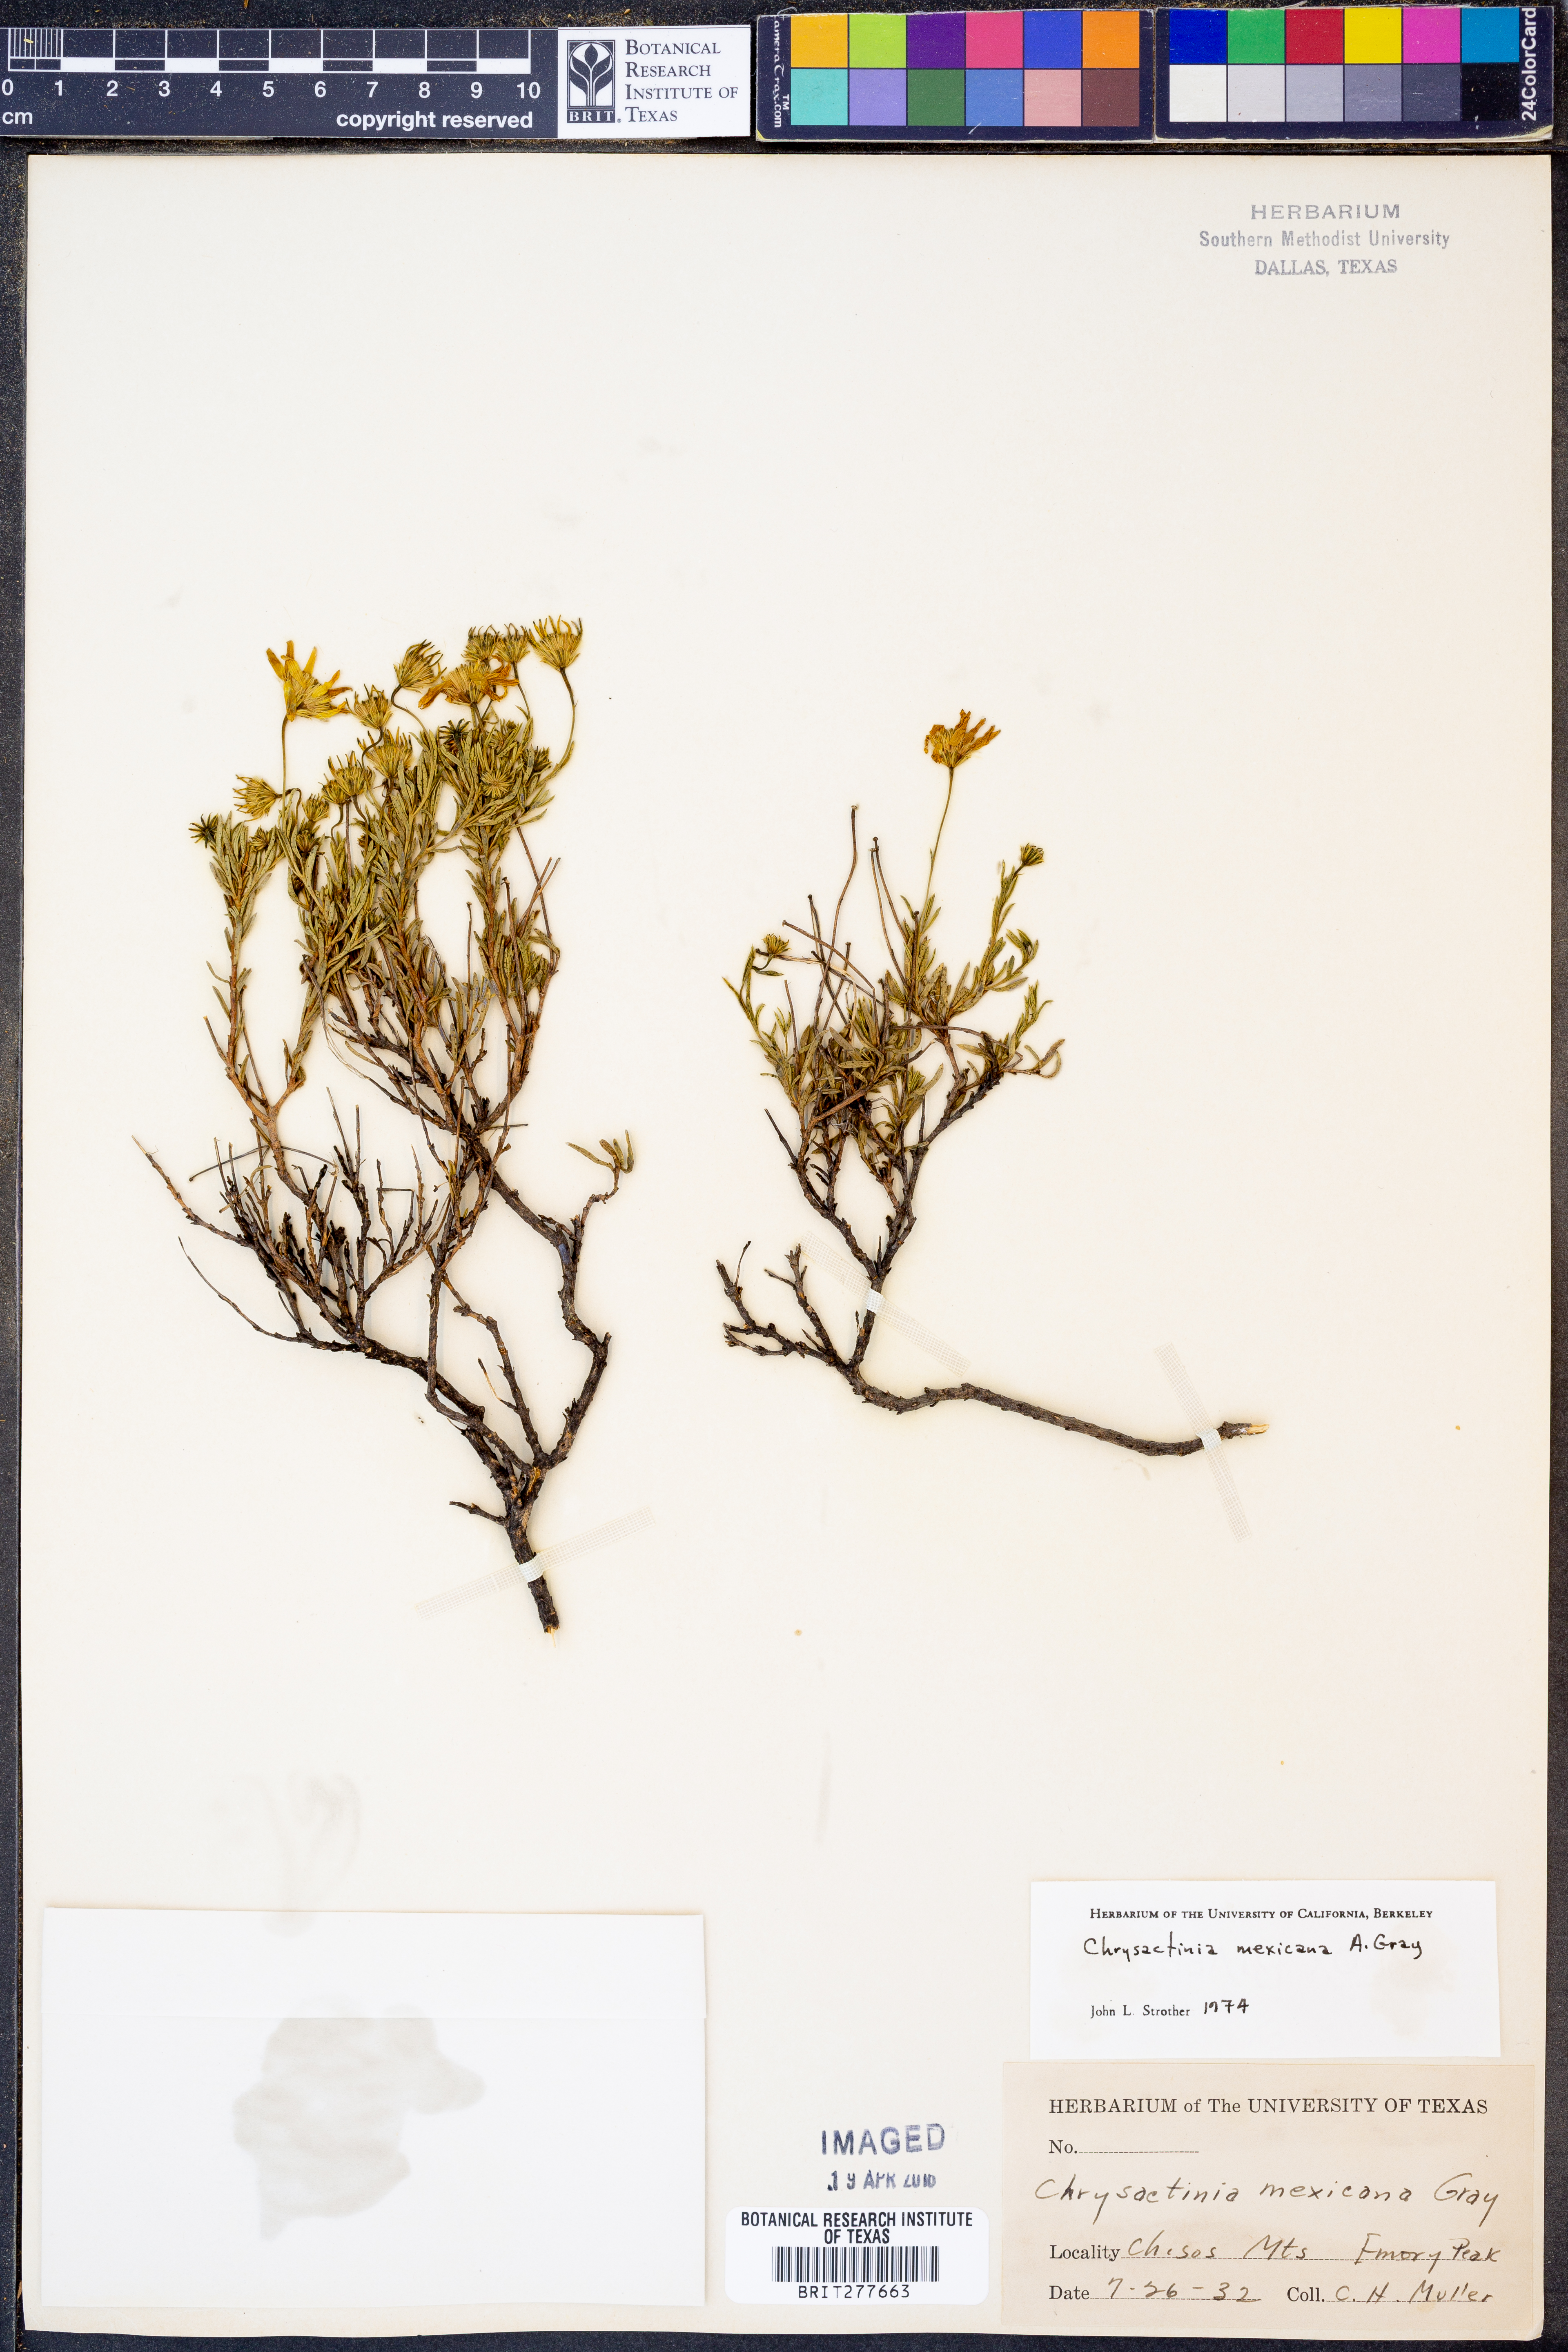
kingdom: Plantae
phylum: Tracheophyta
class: Magnoliopsida
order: Asterales
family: Asteraceae
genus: Chrysactinia
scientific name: Chrysactinia mexicana
